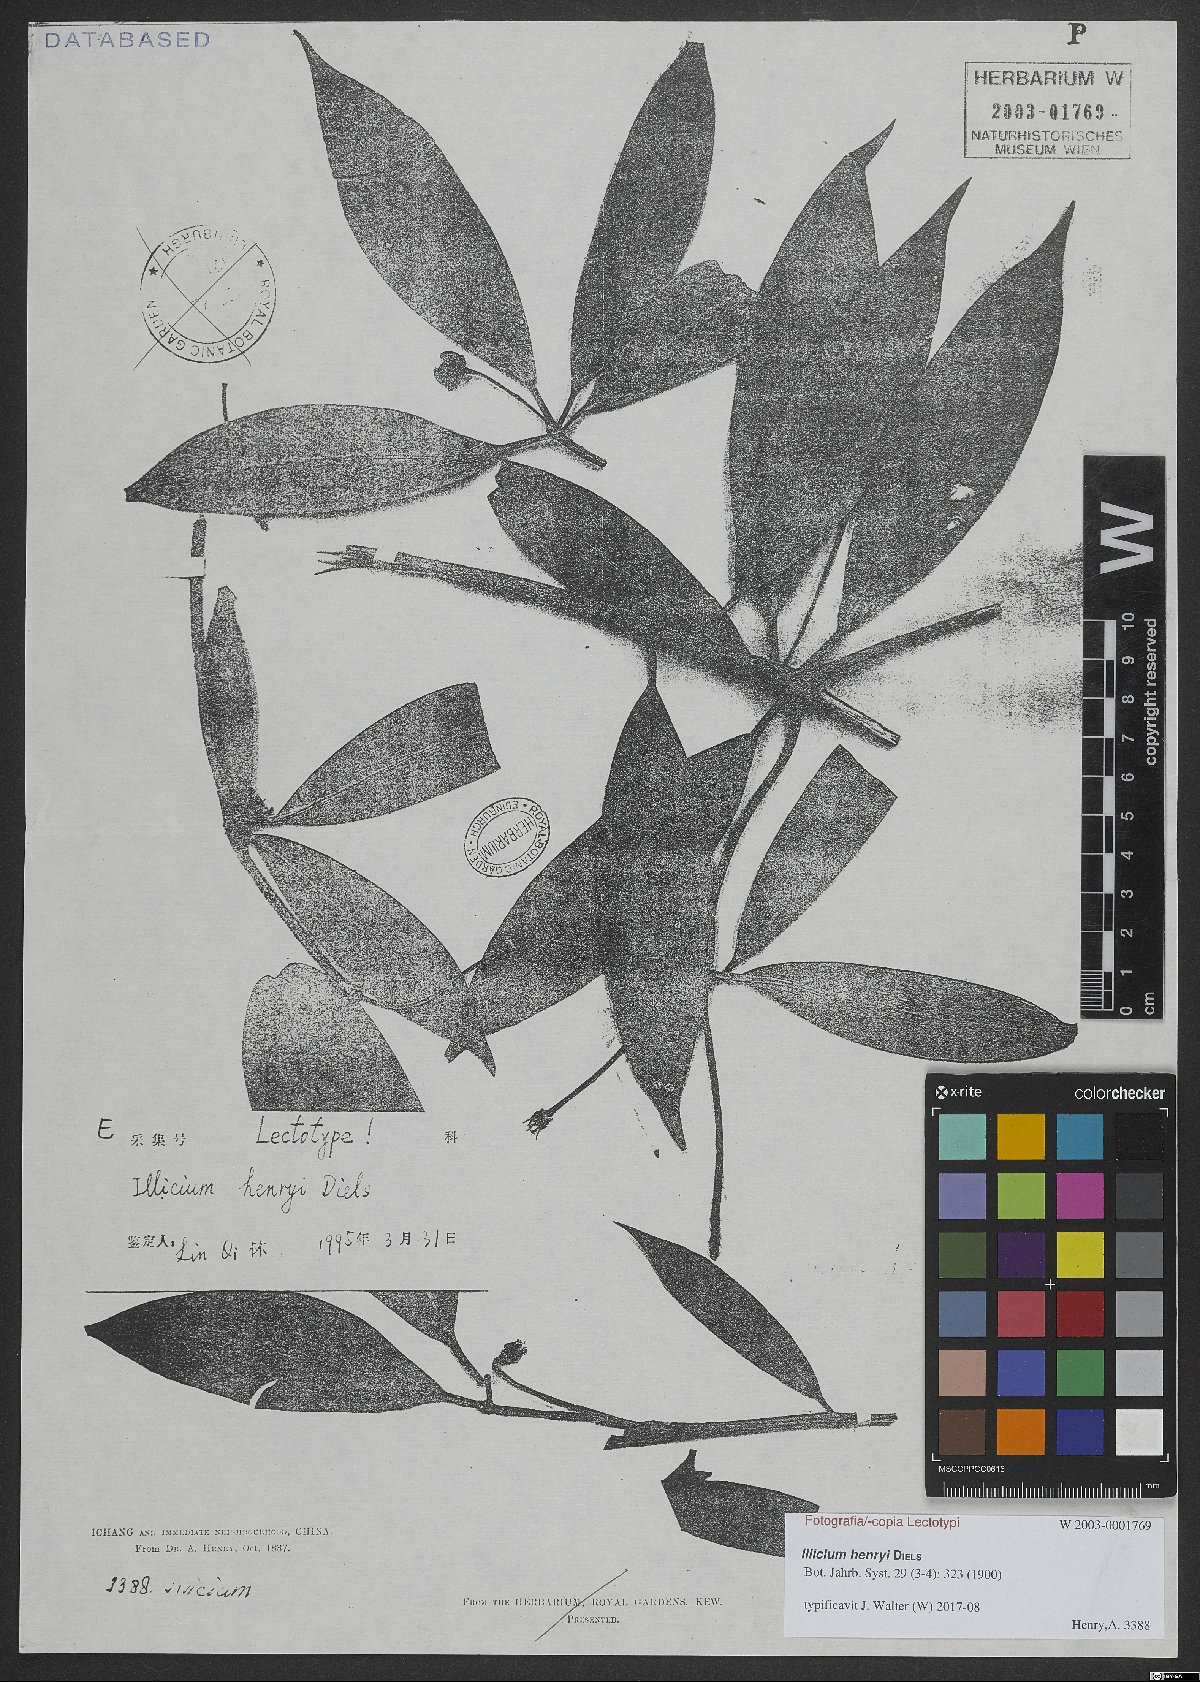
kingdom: Plantae
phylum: Tracheophyta
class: Magnoliopsida
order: Austrobaileyales
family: Schisandraceae
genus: Illicium
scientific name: Illicium henryi
